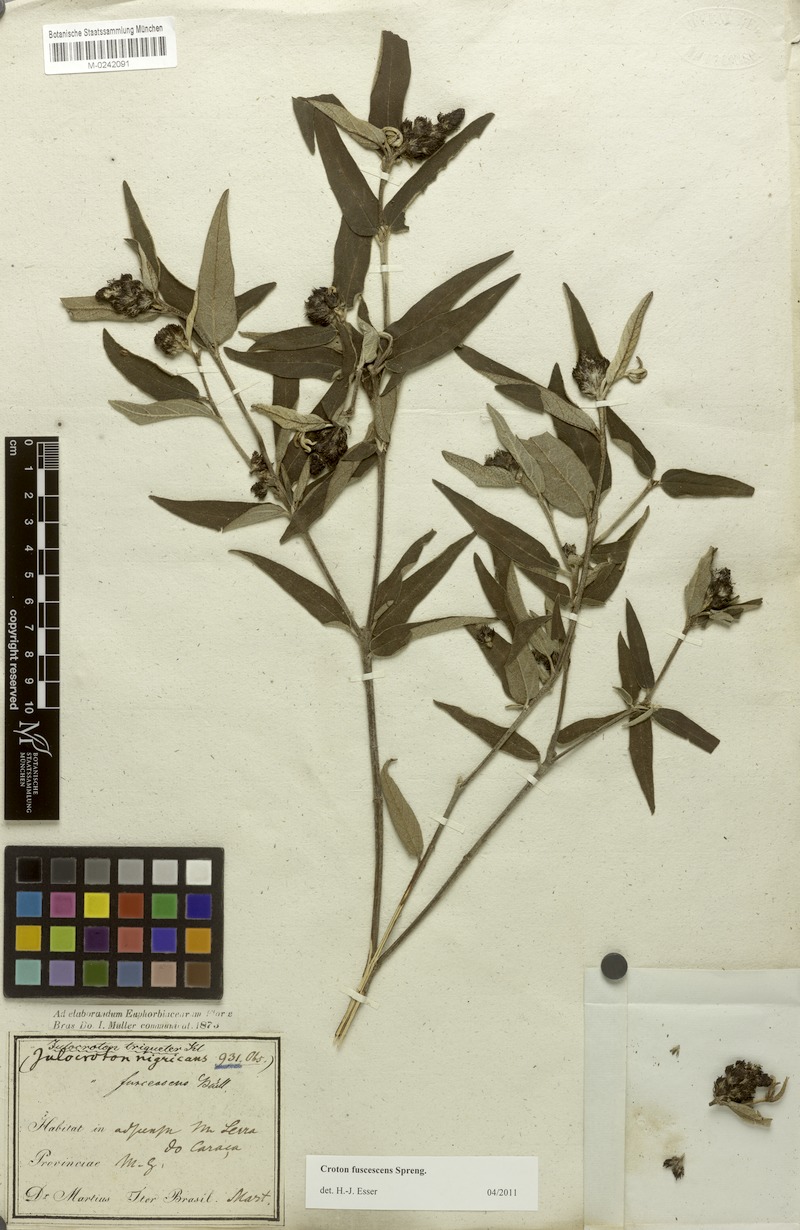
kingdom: Plantae
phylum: Tracheophyta
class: Magnoliopsida
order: Malpighiales
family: Euphorbiaceae
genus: Croton
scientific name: Croton gnaphaloides
